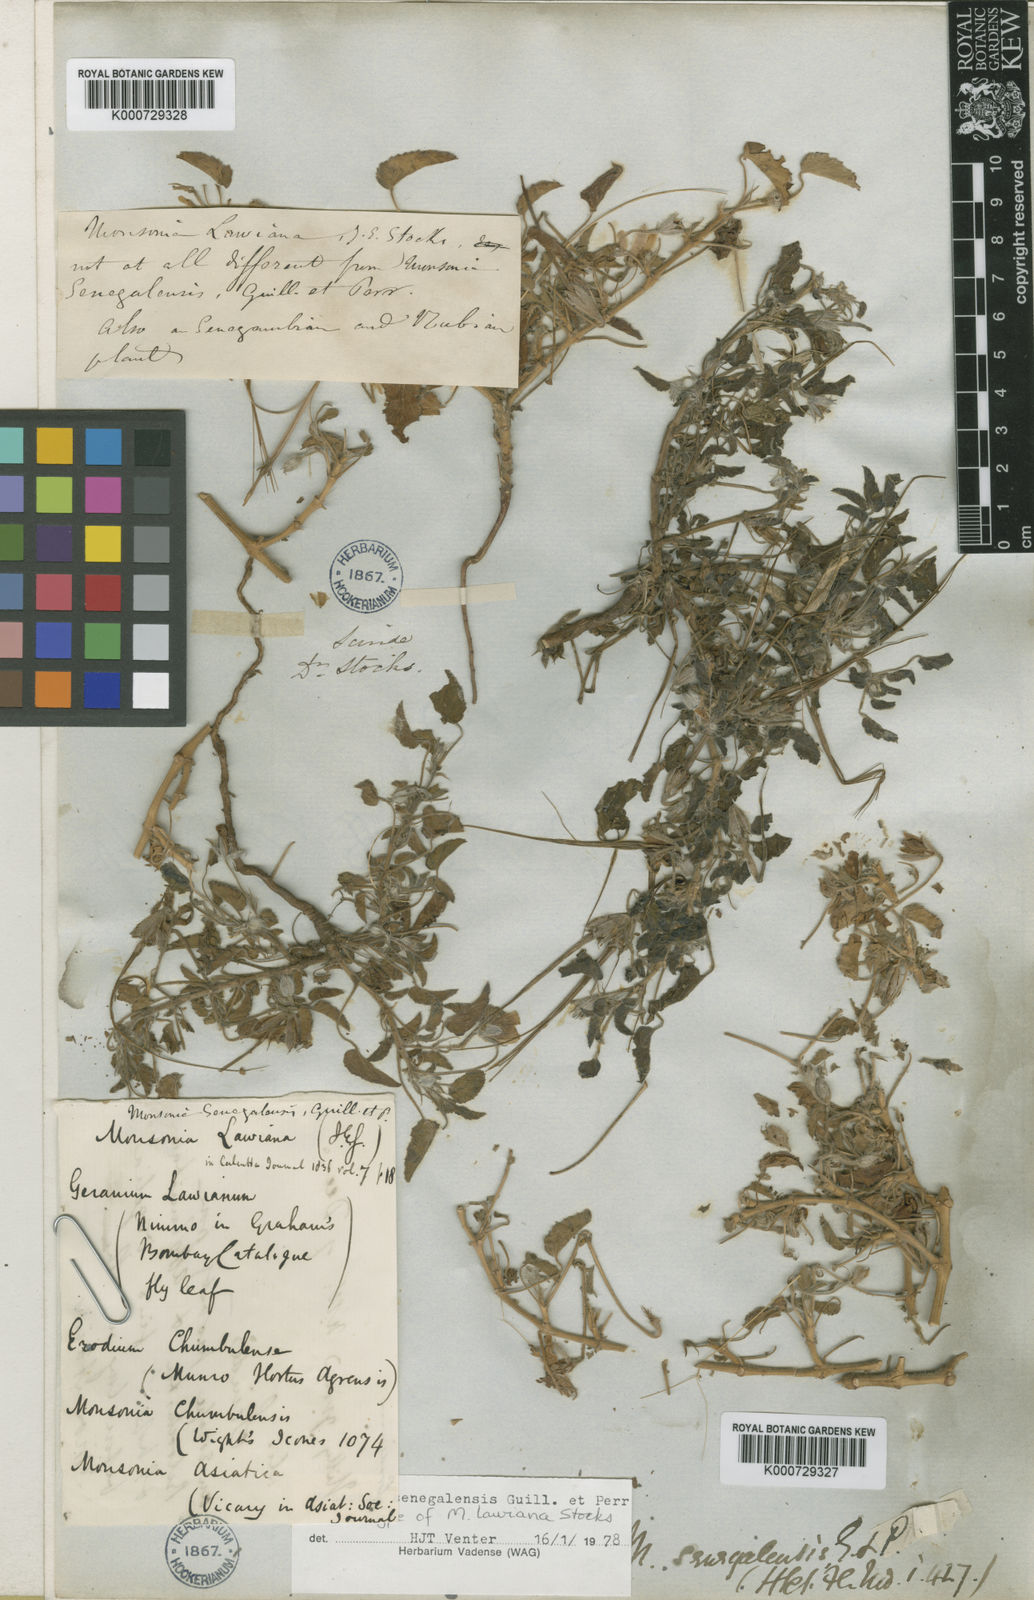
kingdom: Plantae
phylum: Tracheophyta
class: Magnoliopsida
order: Geraniales
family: Geraniaceae
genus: Monsonia
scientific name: Monsonia senegalensis
